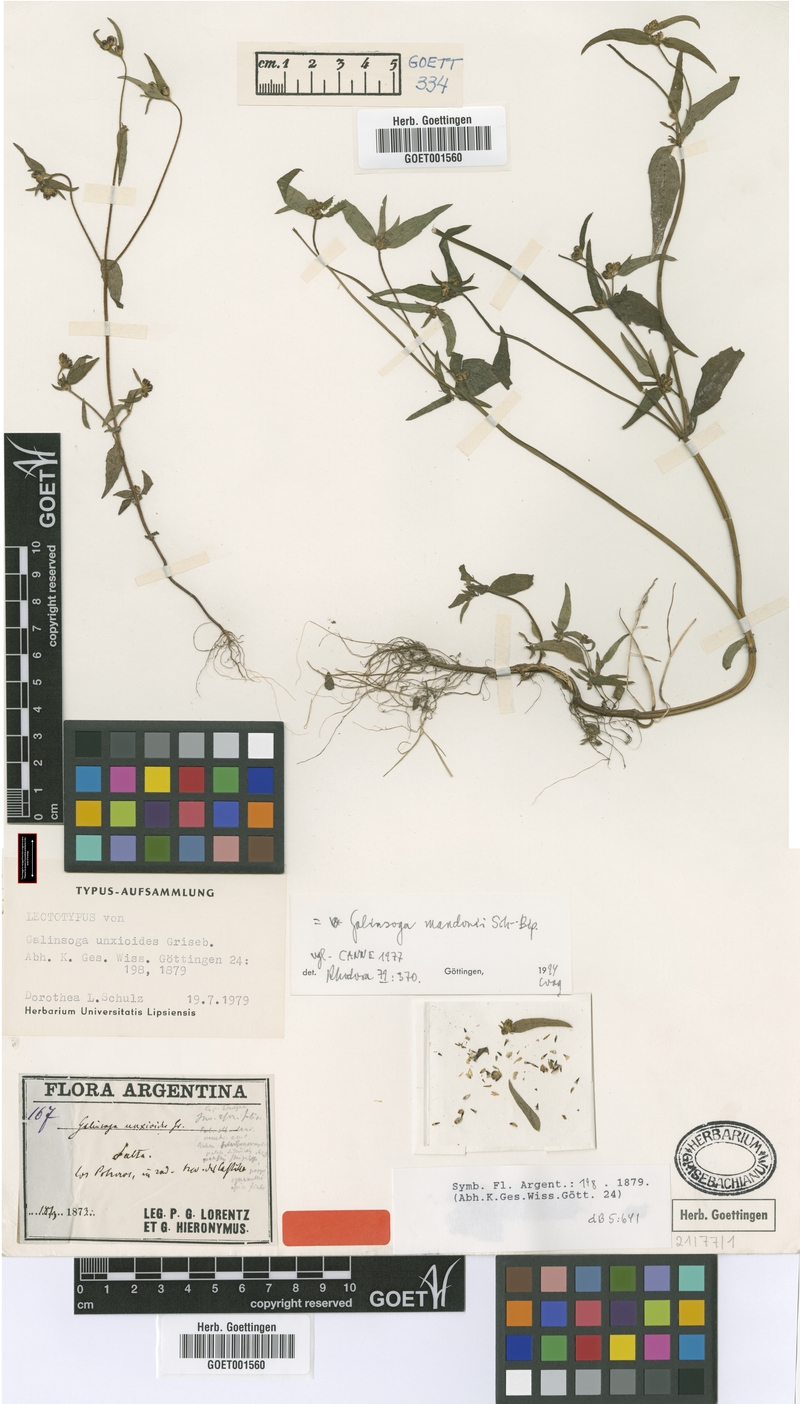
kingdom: Plantae
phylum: Tracheophyta
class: Magnoliopsida
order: Asterales
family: Asteraceae
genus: Galinsoga
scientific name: Galinsoga unxioides
